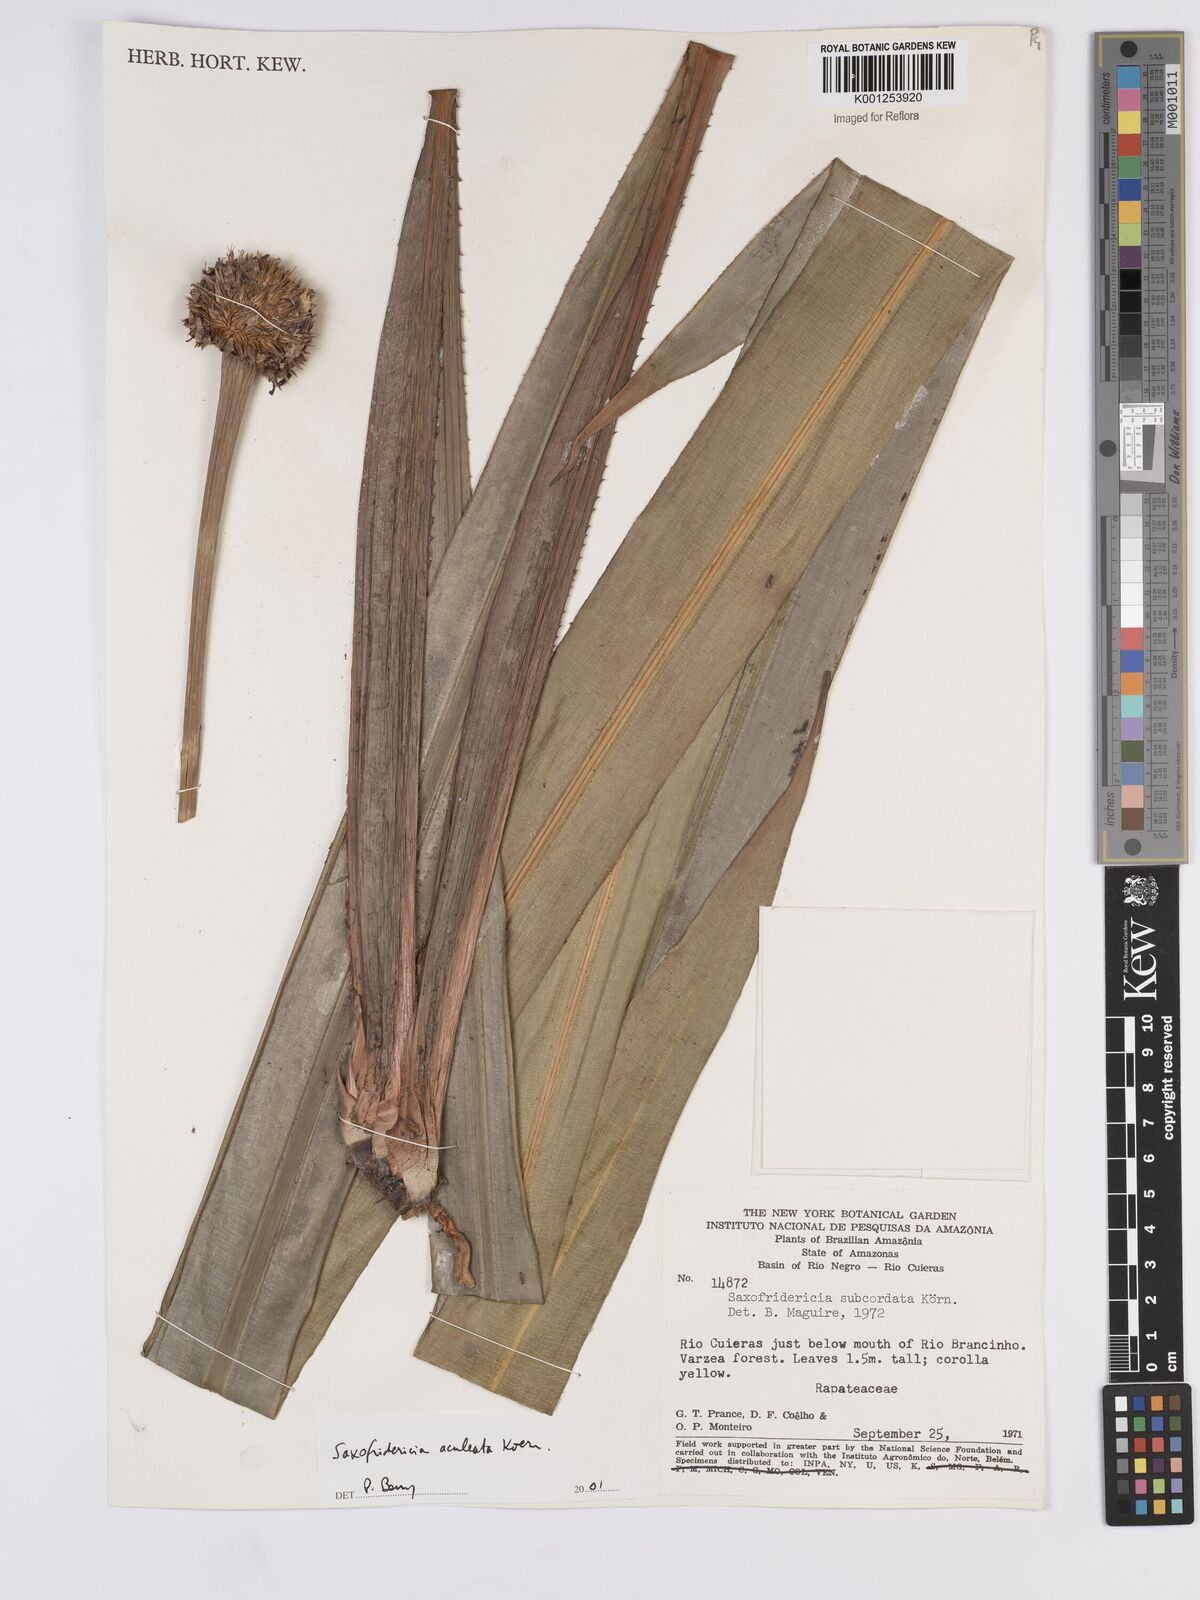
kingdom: Plantae
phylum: Tracheophyta
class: Liliopsida
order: Poales
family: Rapateaceae
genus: Saxofridericia
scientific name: Saxofridericia aculeata
